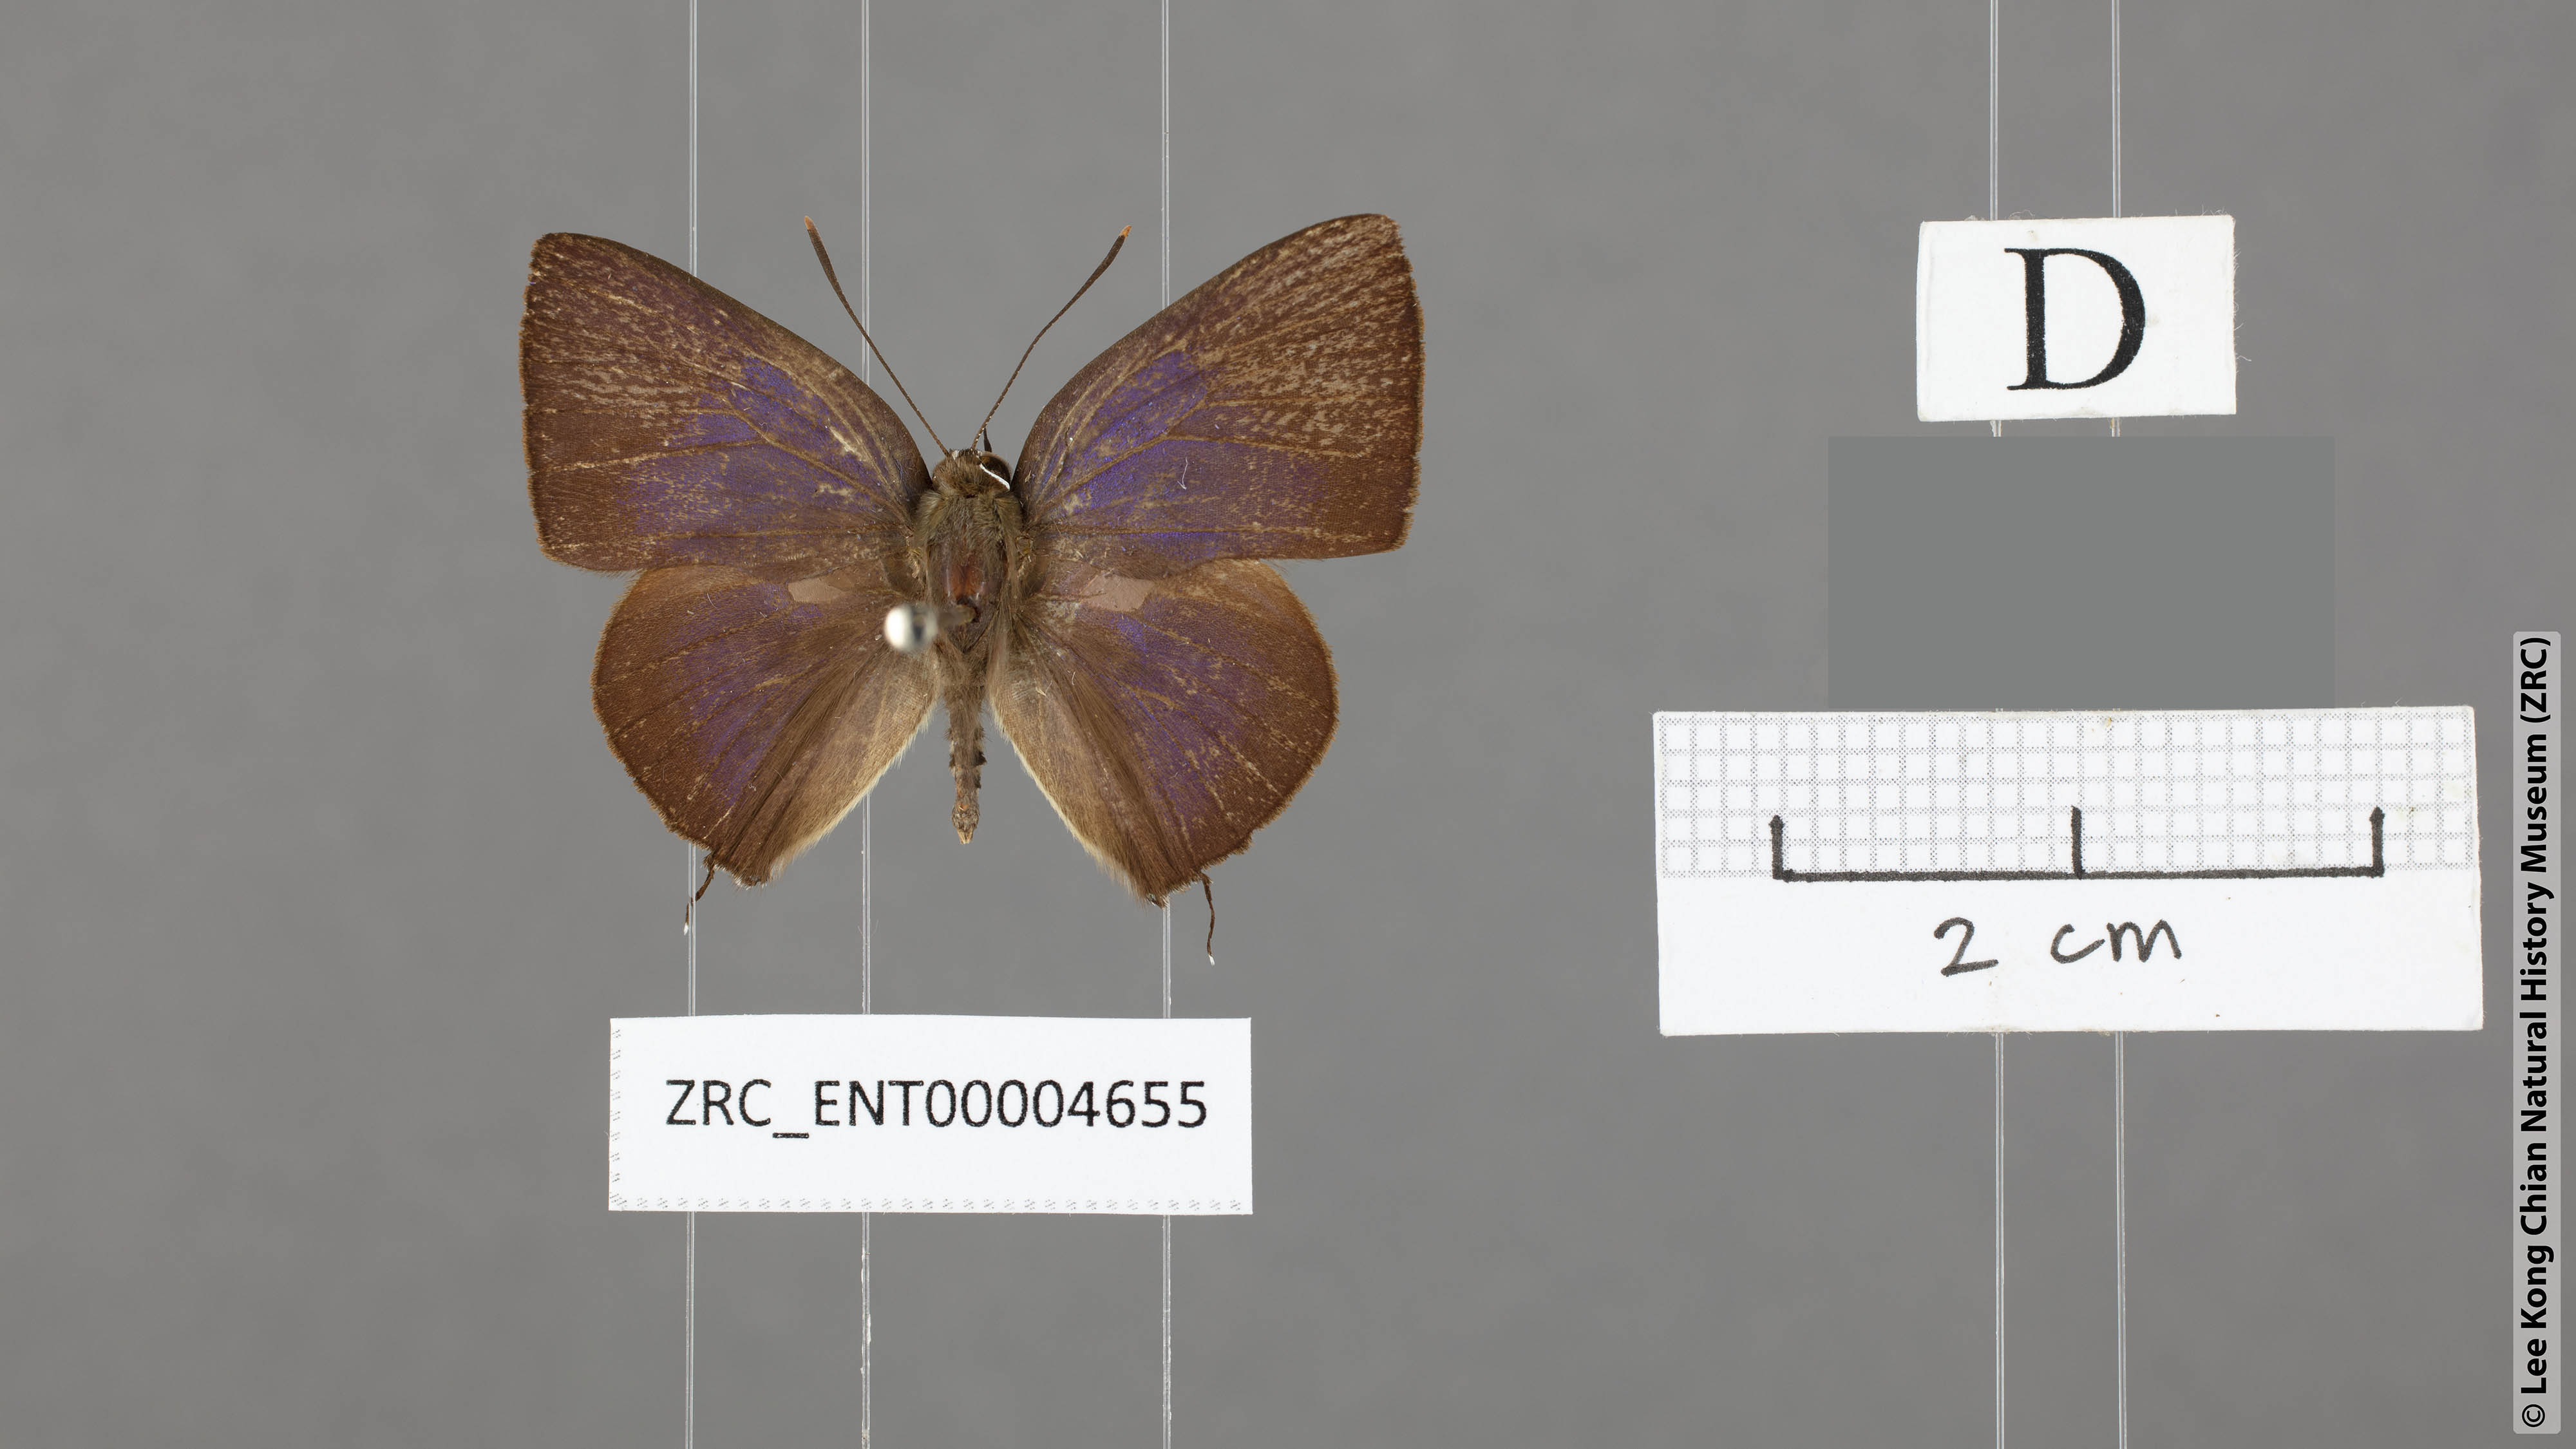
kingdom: Animalia
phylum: Arthropoda
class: Insecta
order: Lepidoptera
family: Lycaenidae
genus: Deudorix
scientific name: Deudorix
